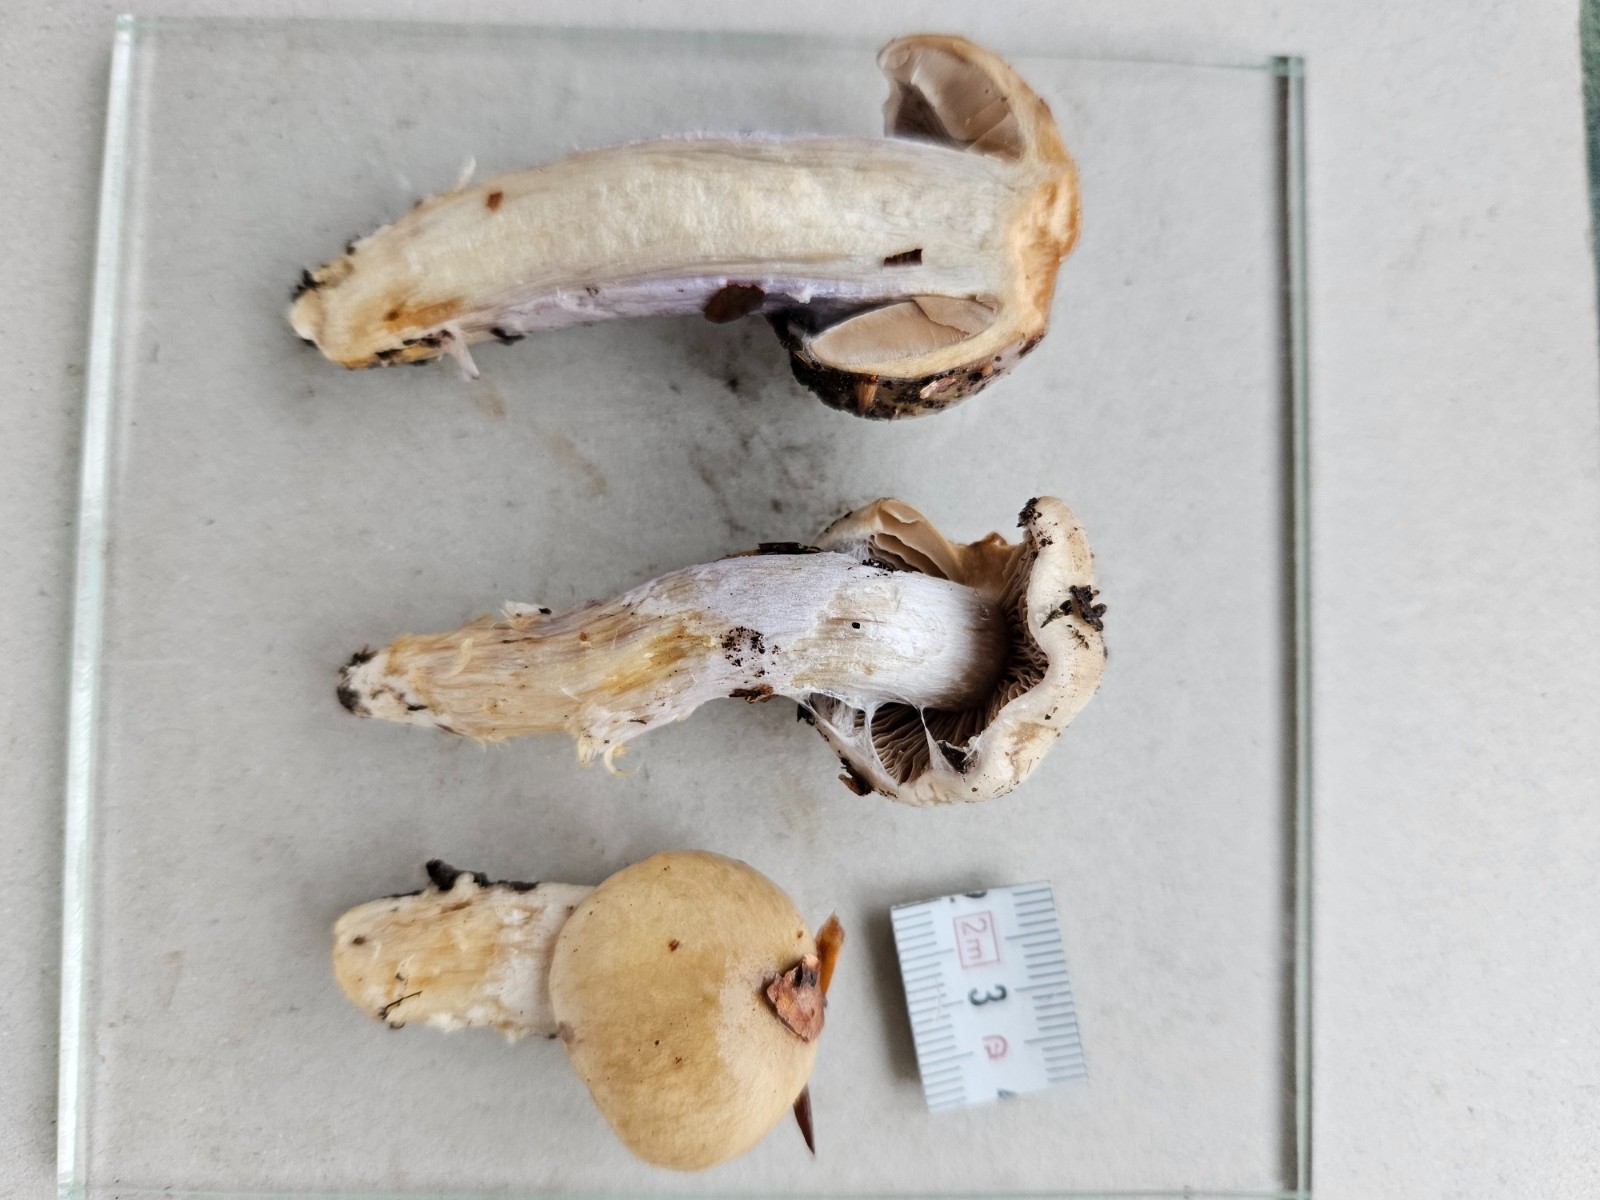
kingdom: Fungi
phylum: Basidiomycota
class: Agaricomycetes
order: Agaricales
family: Cortinariaceae
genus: Cortinarius
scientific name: Cortinarius livido-ochraceus
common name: halvhøj slørhat
